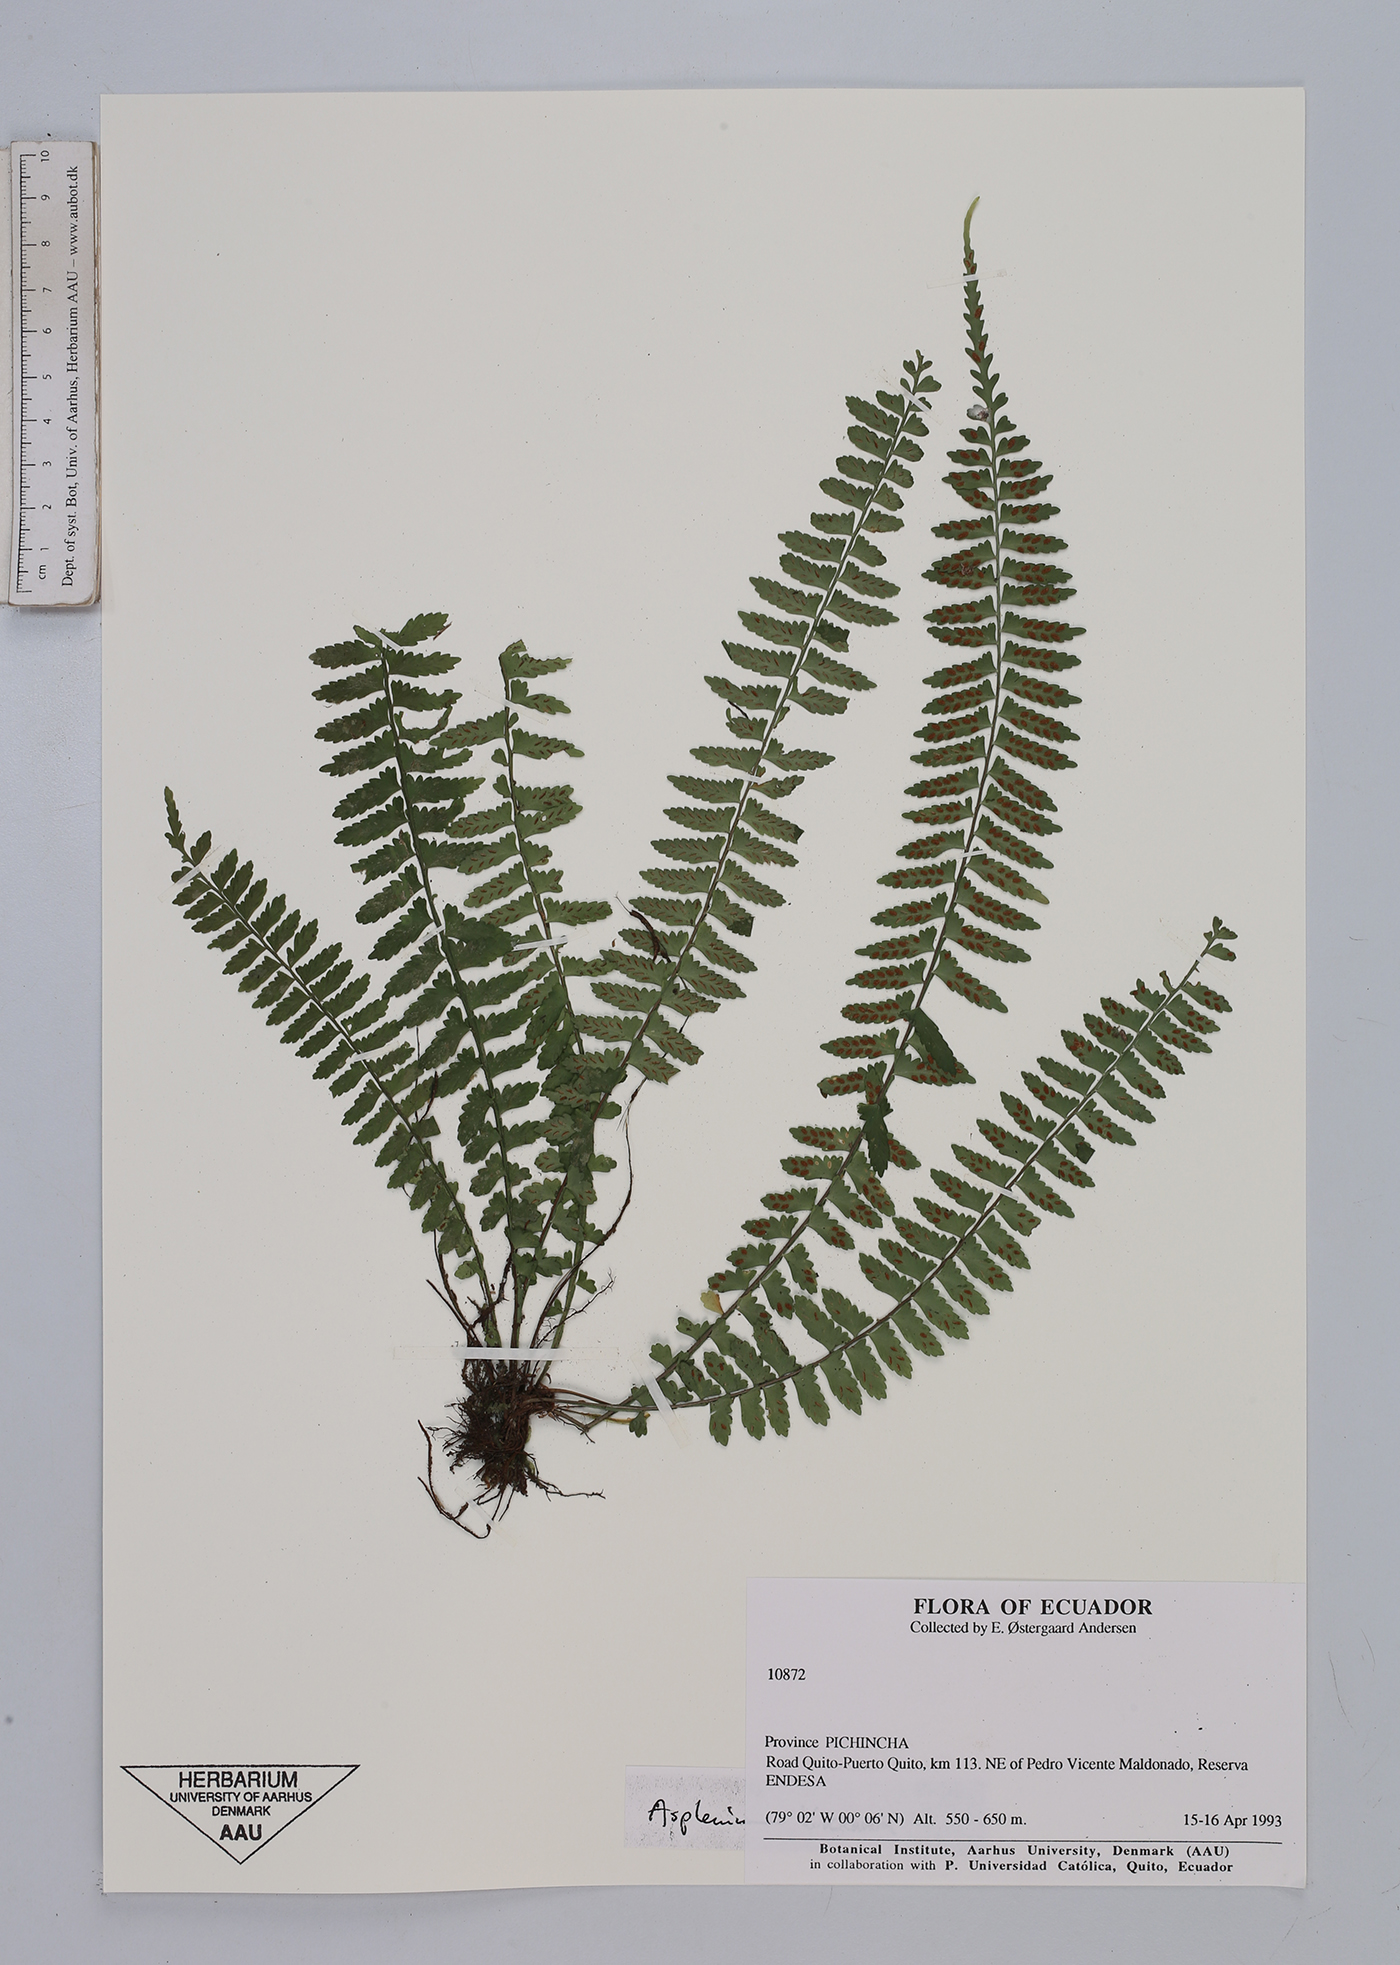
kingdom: Plantae
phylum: Tracheophyta
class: Polypodiopsida
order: Polypodiales
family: Aspleniaceae
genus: Asplenium
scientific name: Asplenium
